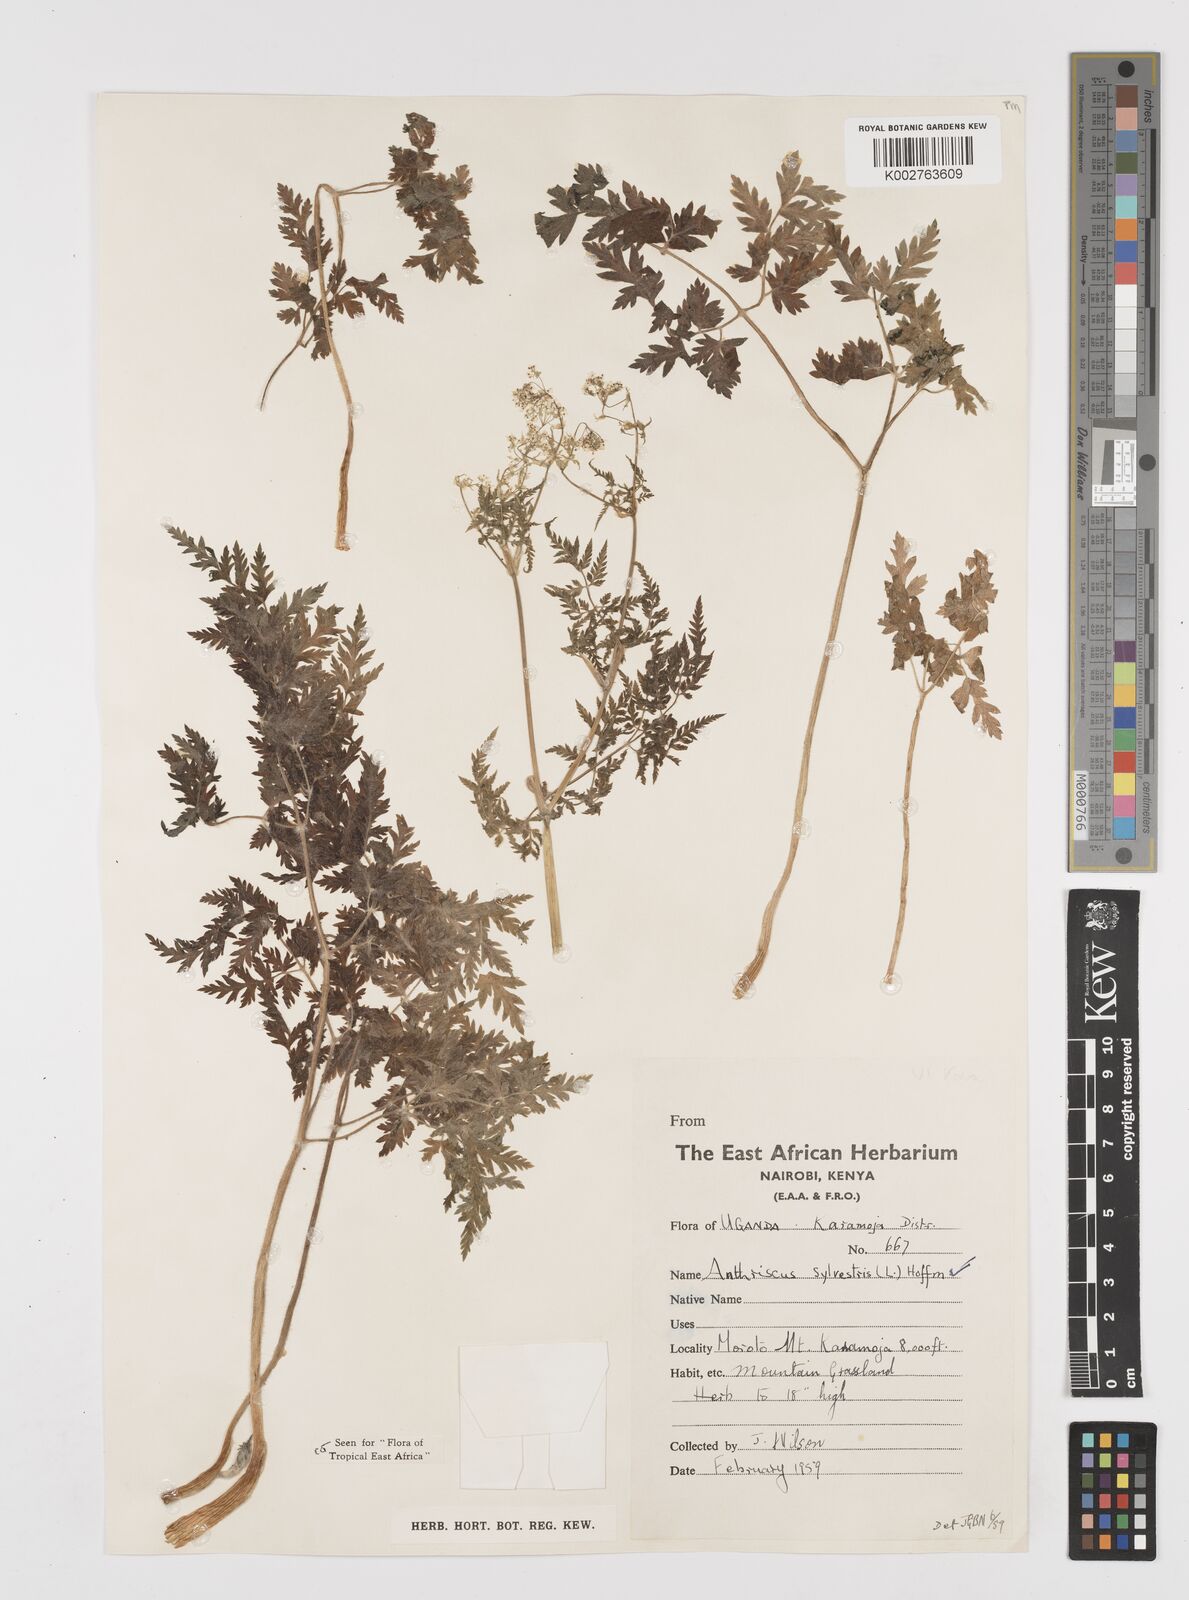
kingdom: Plantae
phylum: Tracheophyta
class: Magnoliopsida
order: Apiales
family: Apiaceae
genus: Anthriscus
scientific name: Anthriscus sylvestris
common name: Cow parsley
